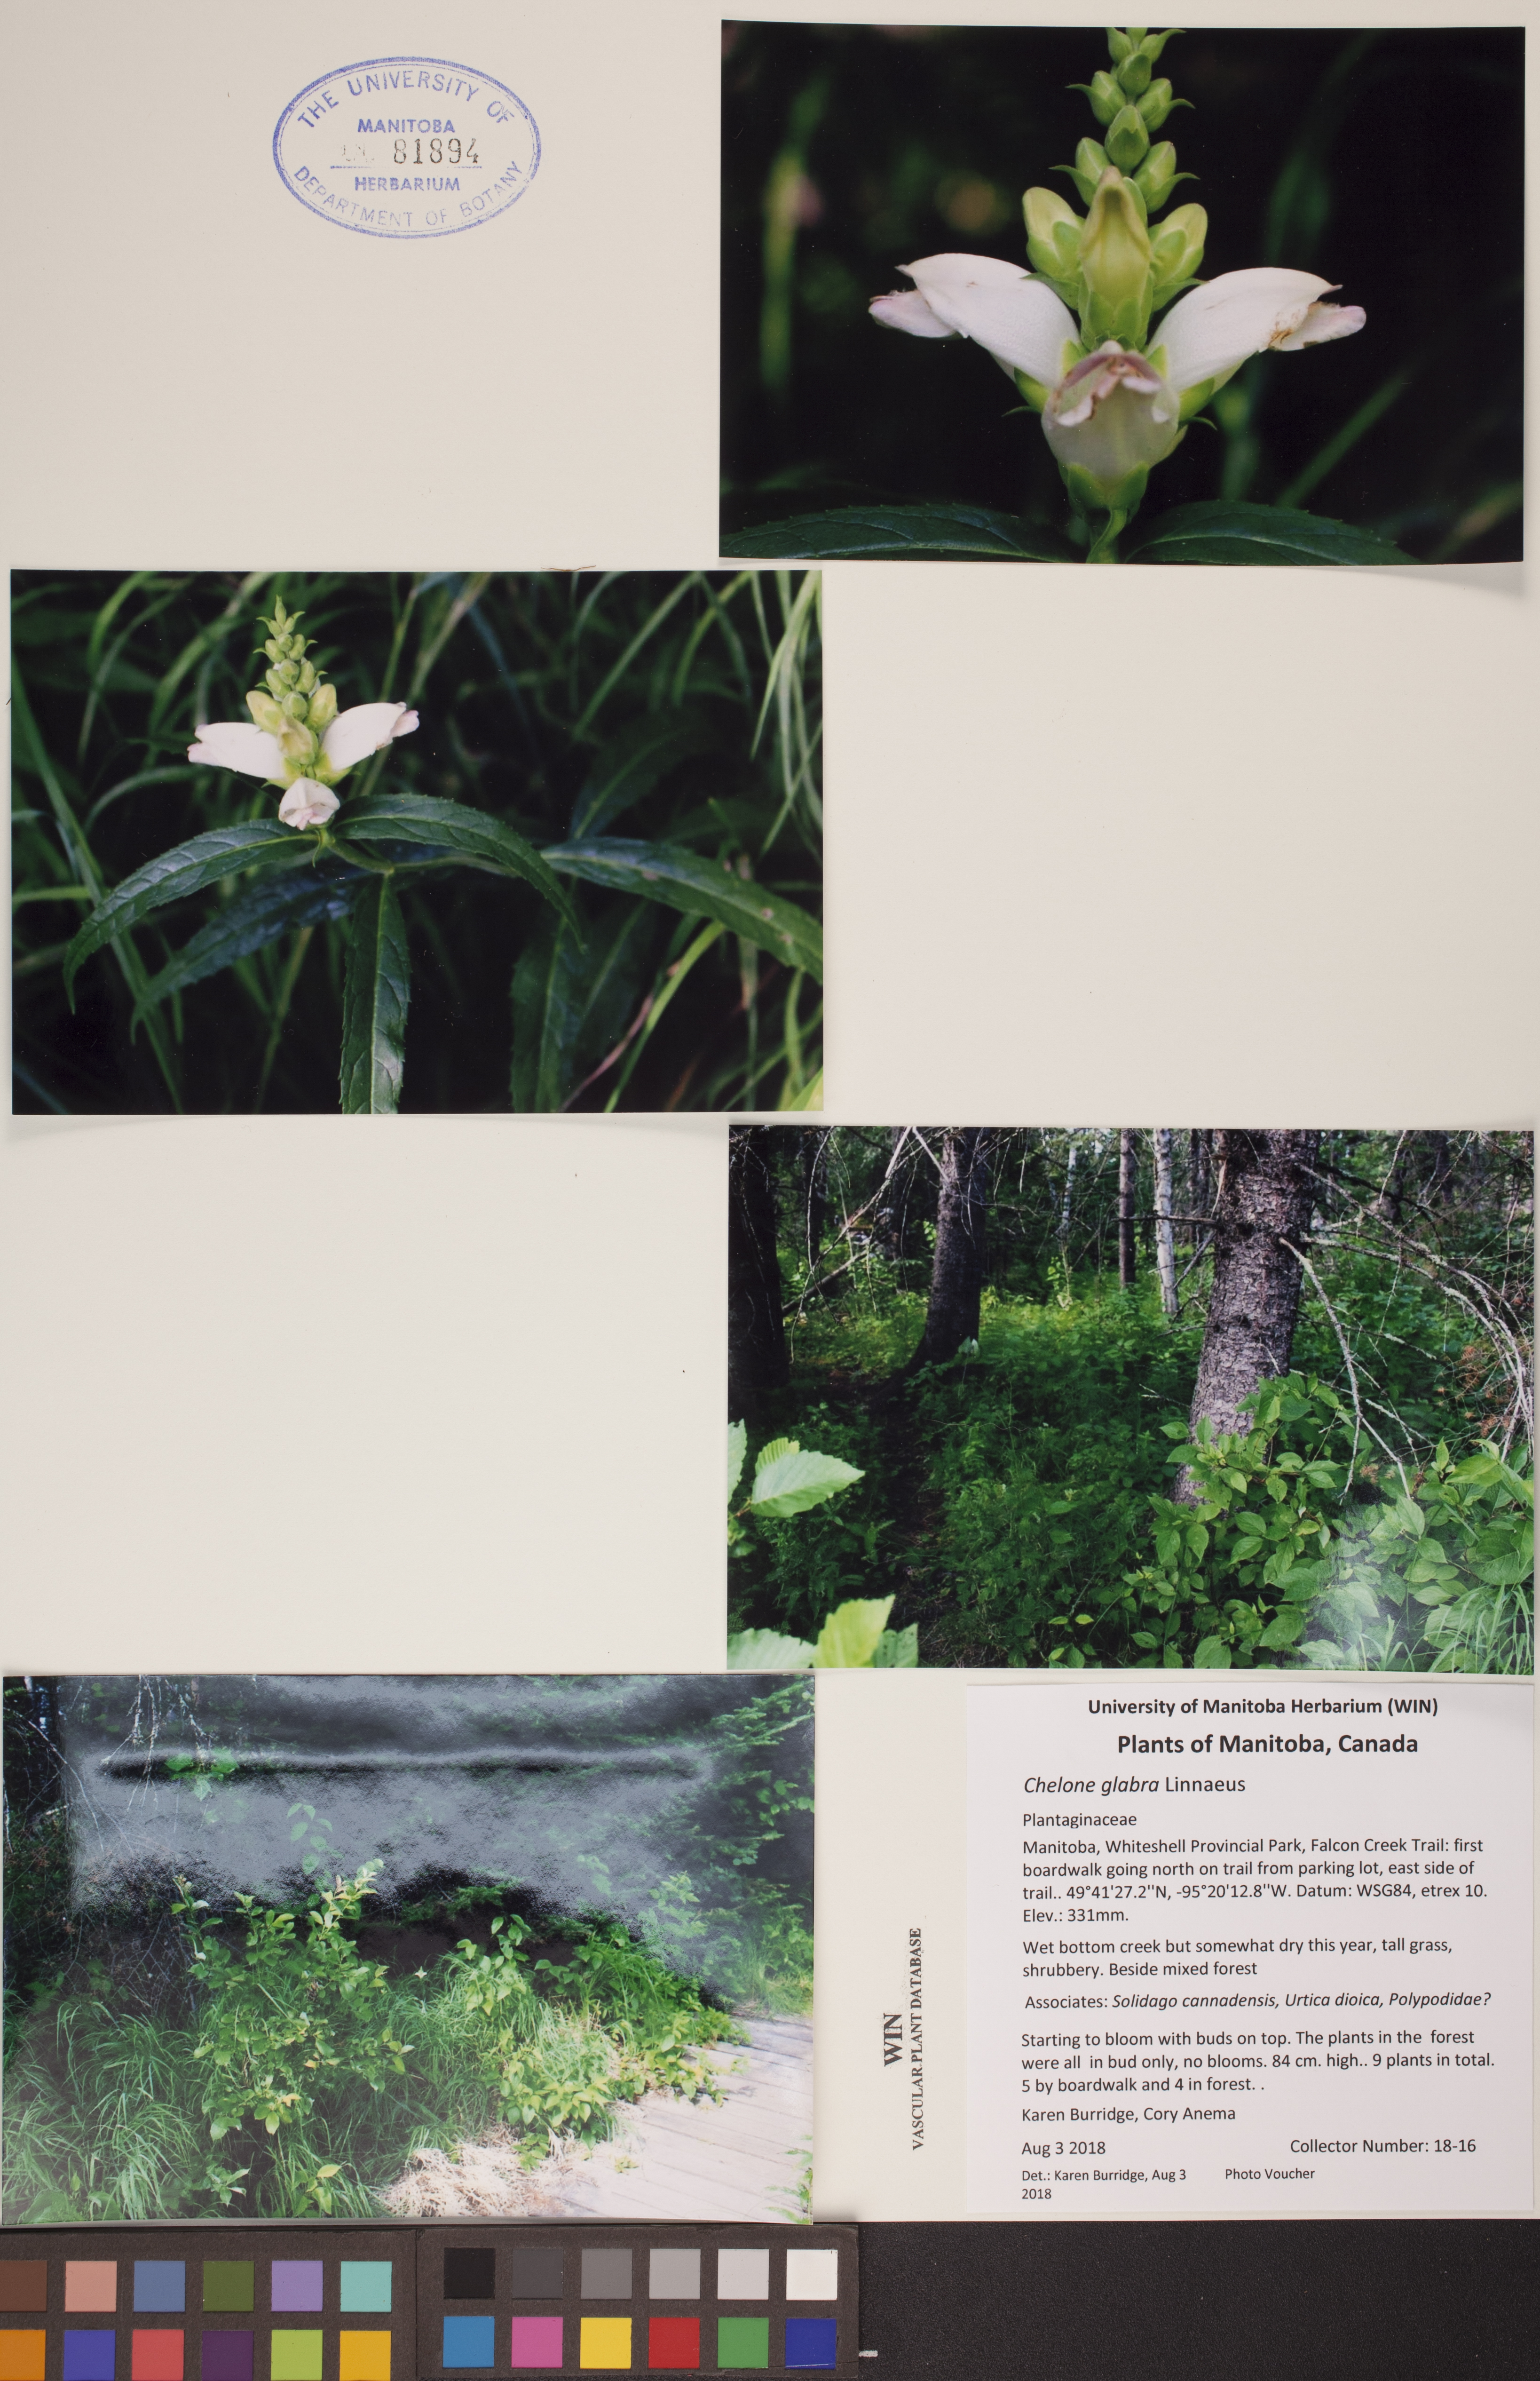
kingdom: Plantae
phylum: Tracheophyta
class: Magnoliopsida
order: Lamiales
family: Plantaginaceae
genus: Chelone
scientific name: Chelone glabra
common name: Snakehead
